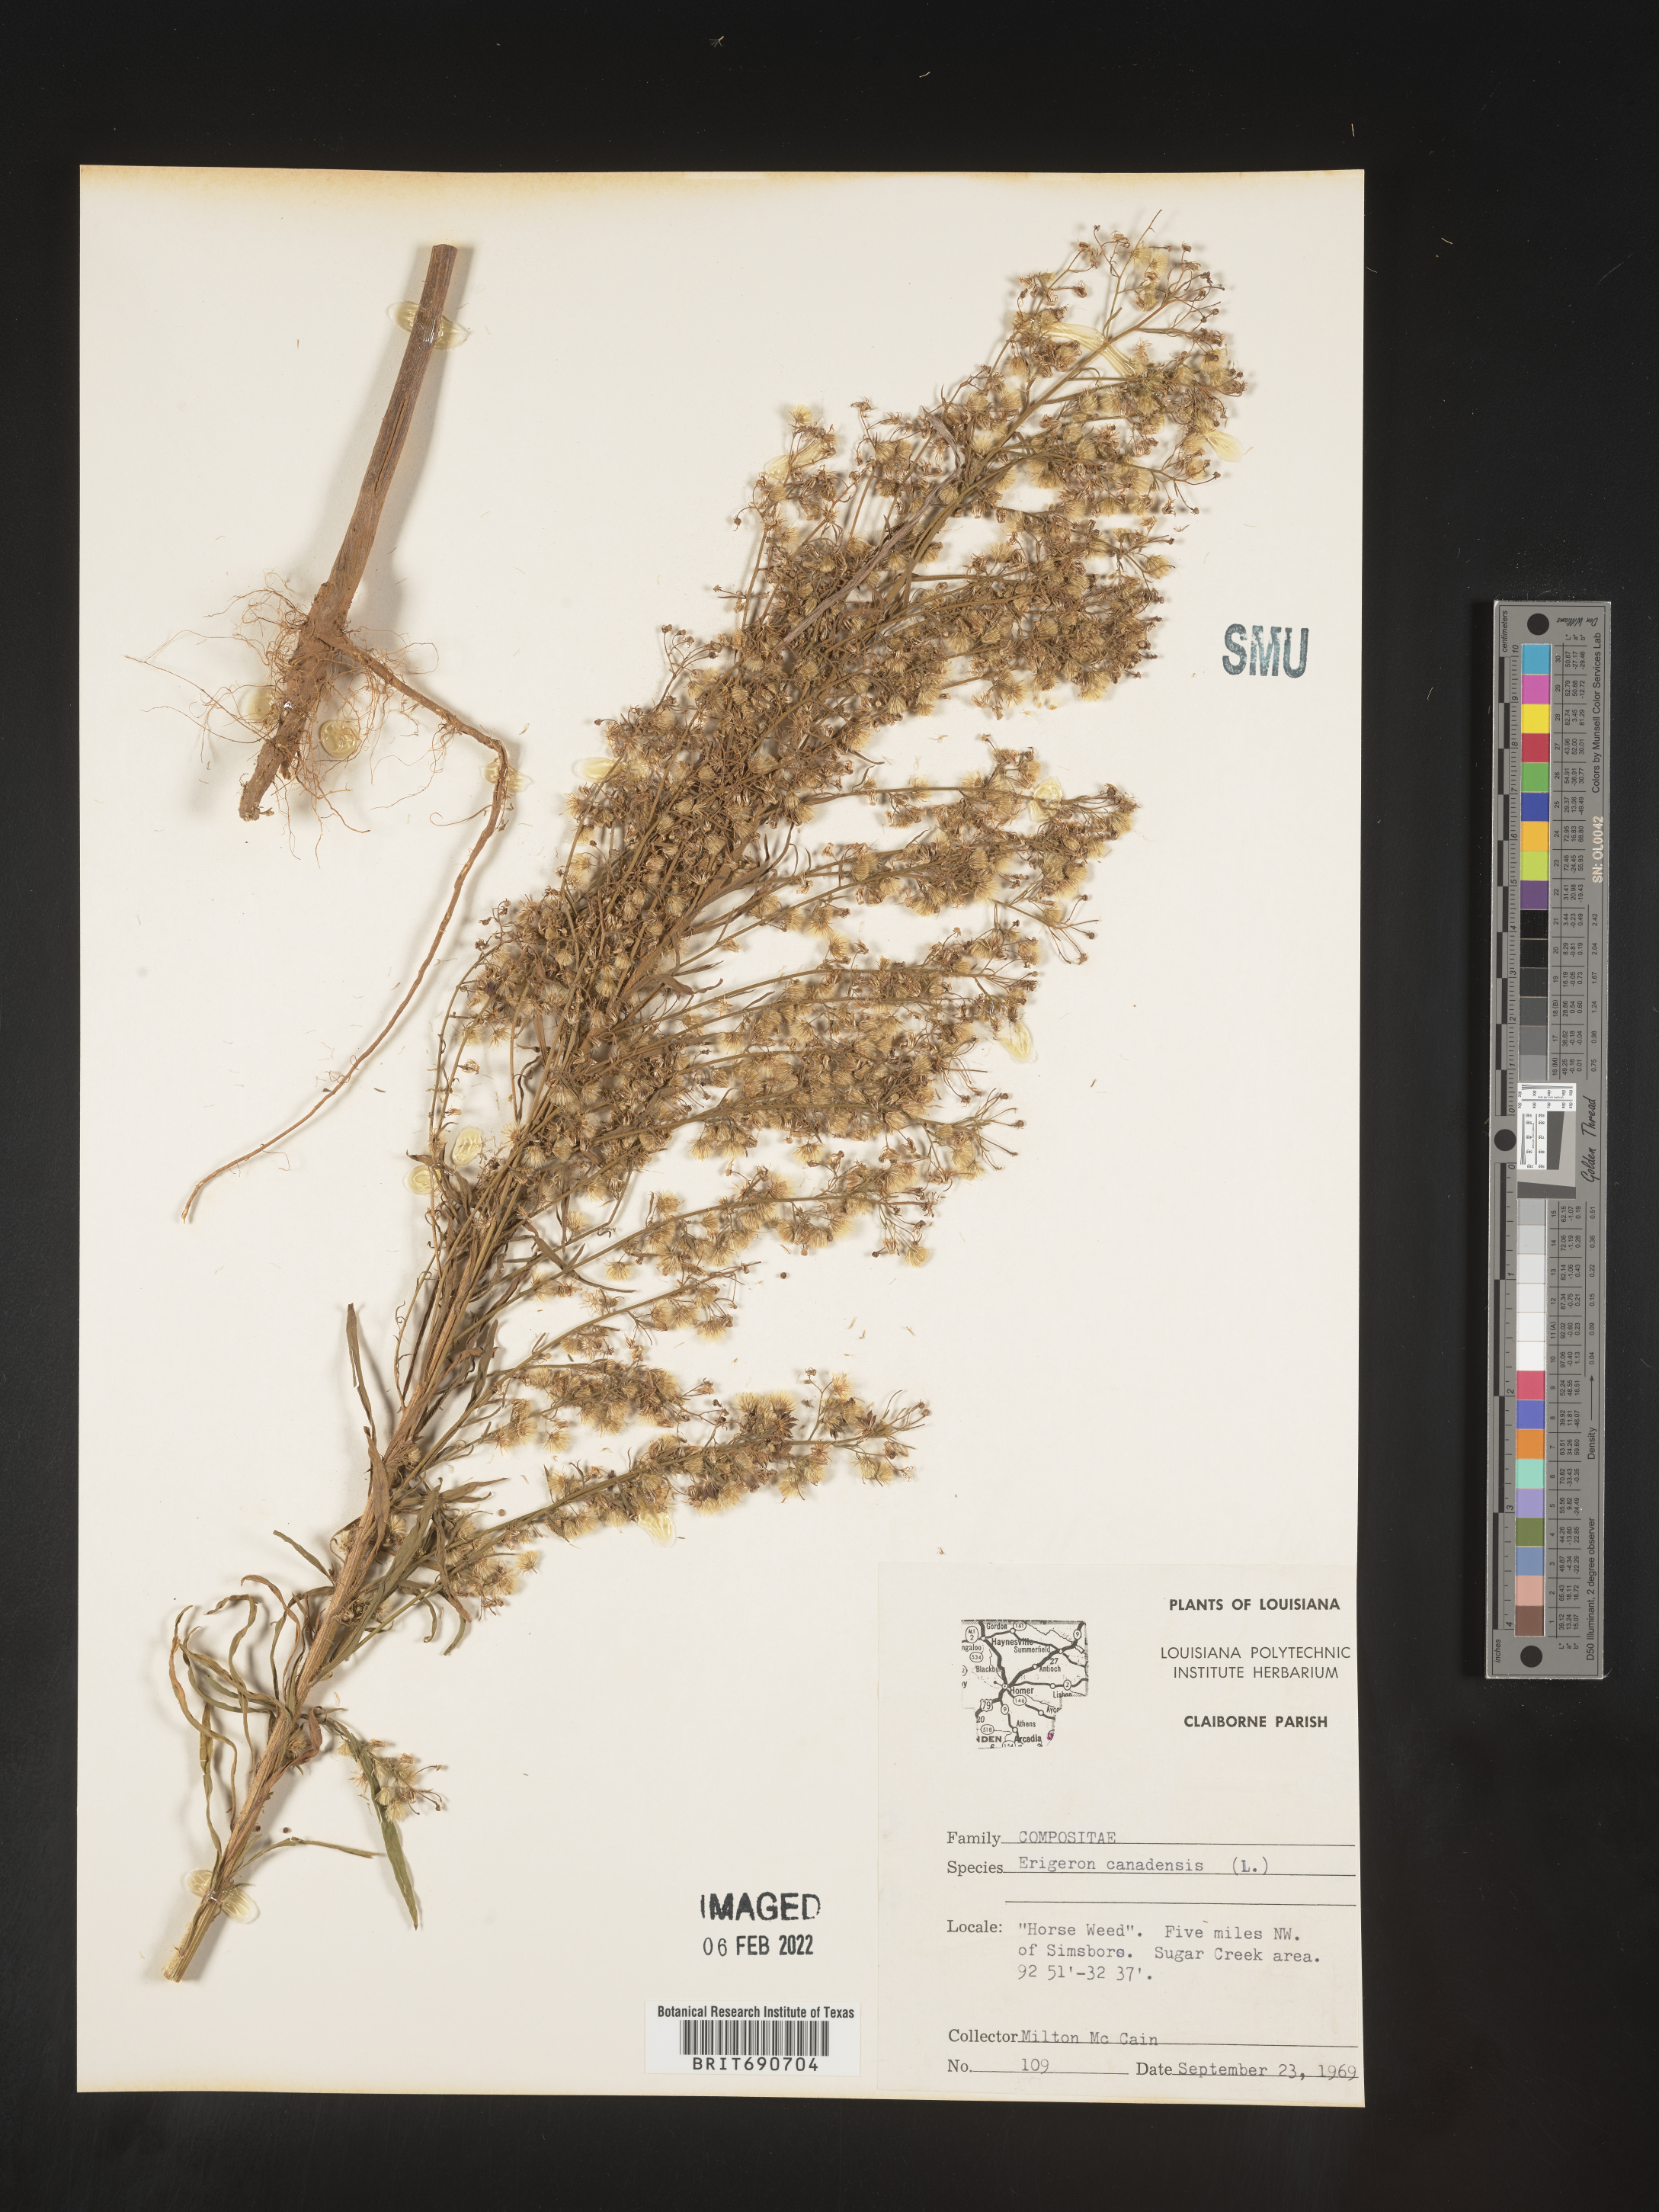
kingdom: Plantae
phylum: Tracheophyta
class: Magnoliopsida
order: Asterales
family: Asteraceae
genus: Erigeron
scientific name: Erigeron canadensis
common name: Canadian fleabane
